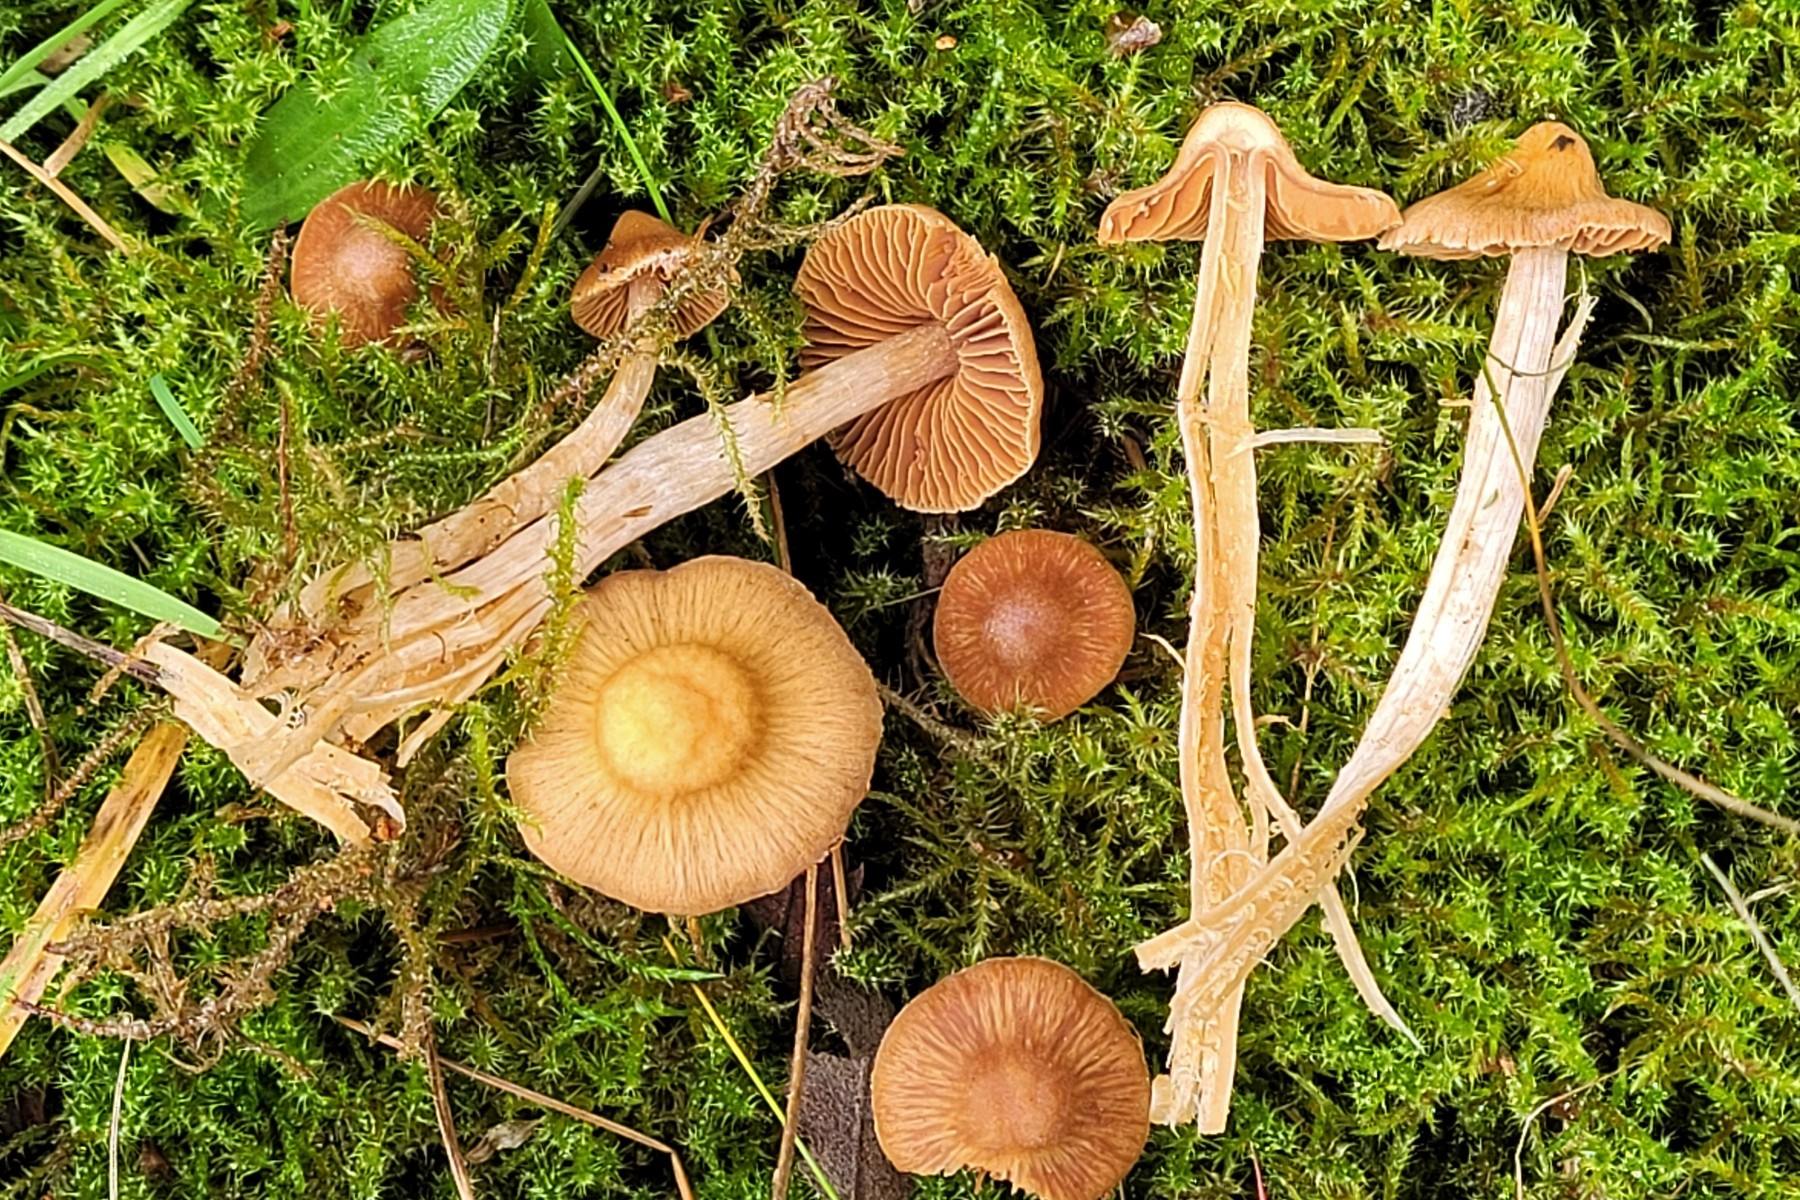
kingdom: Fungi
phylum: Basidiomycota
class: Agaricomycetes
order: Agaricales
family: Cortinariaceae
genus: Cortinarius
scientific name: Cortinarius pallidostriatoides
